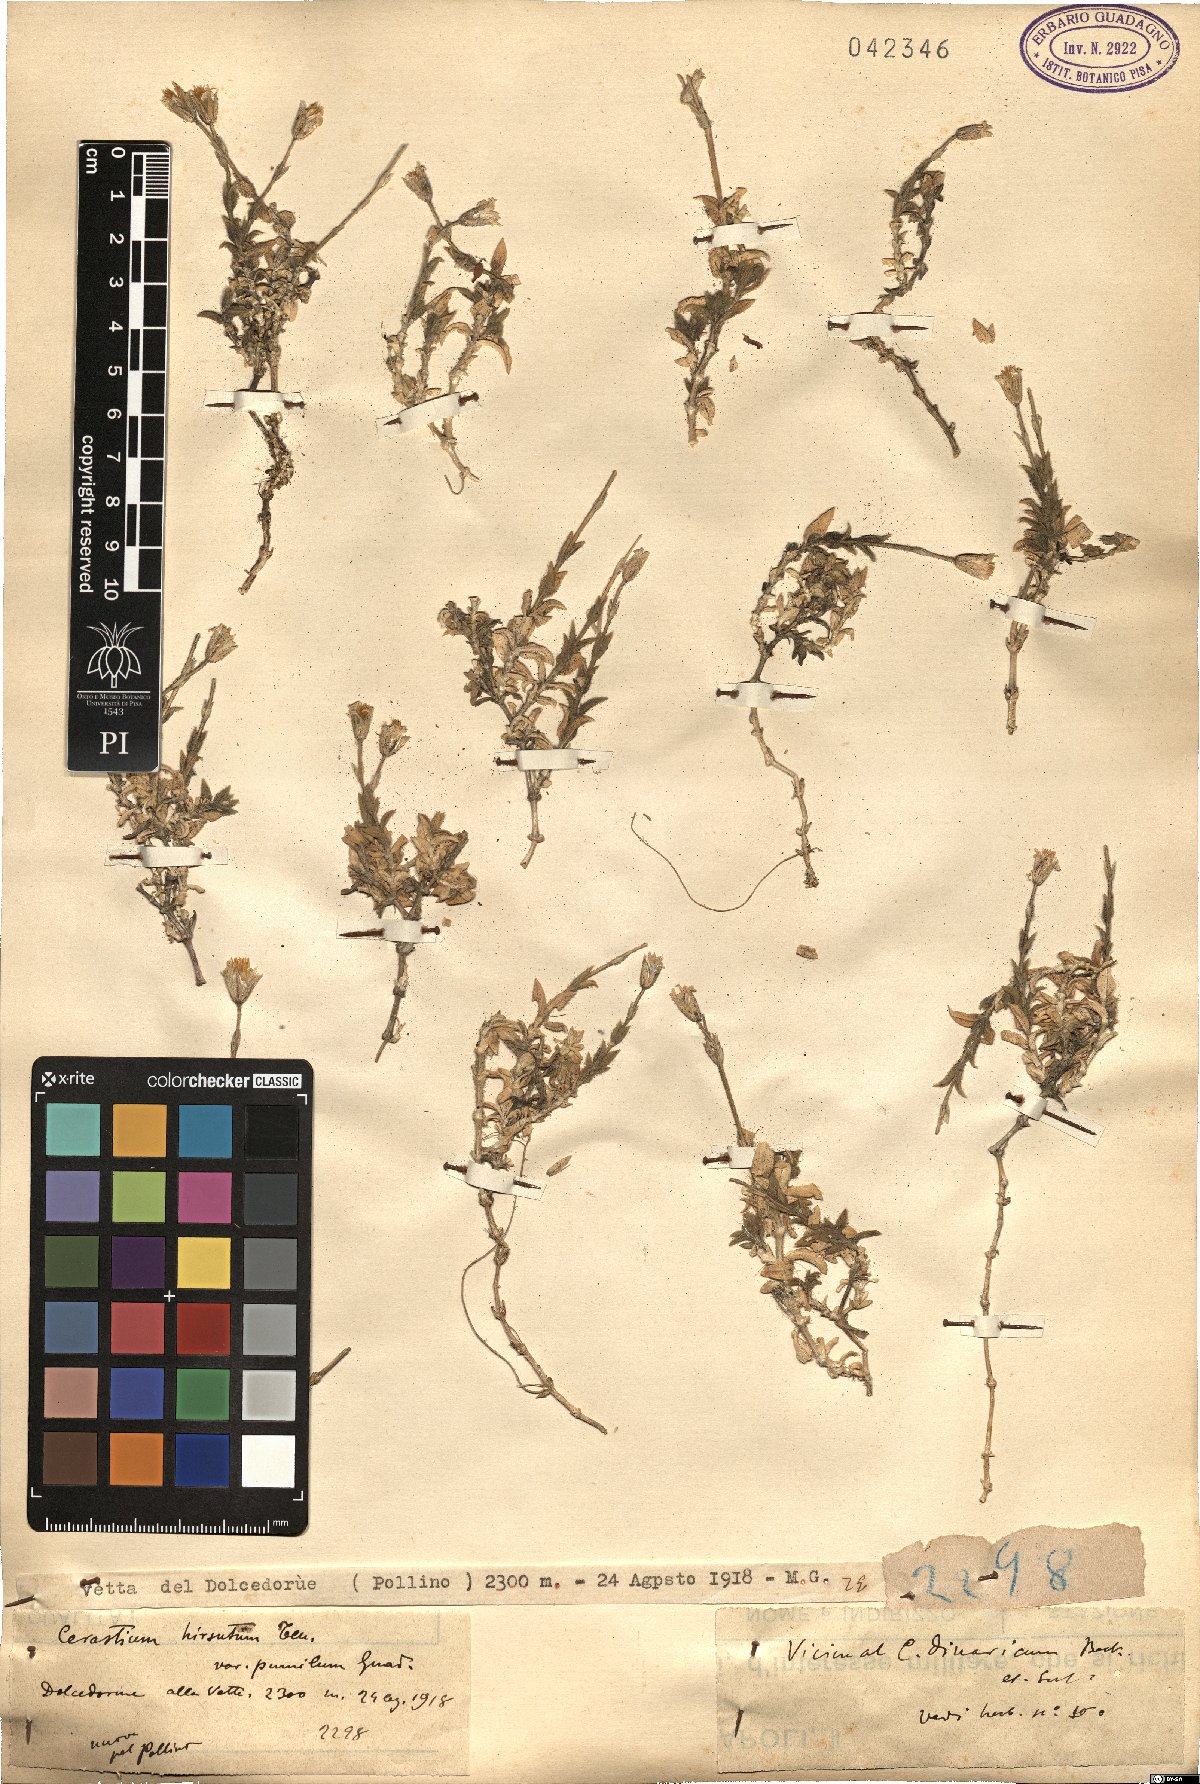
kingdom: Plantae
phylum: Tracheophyta
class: Magnoliopsida
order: Caryophyllales
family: Caryophyllaceae
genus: Cerastium
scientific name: Cerastium
